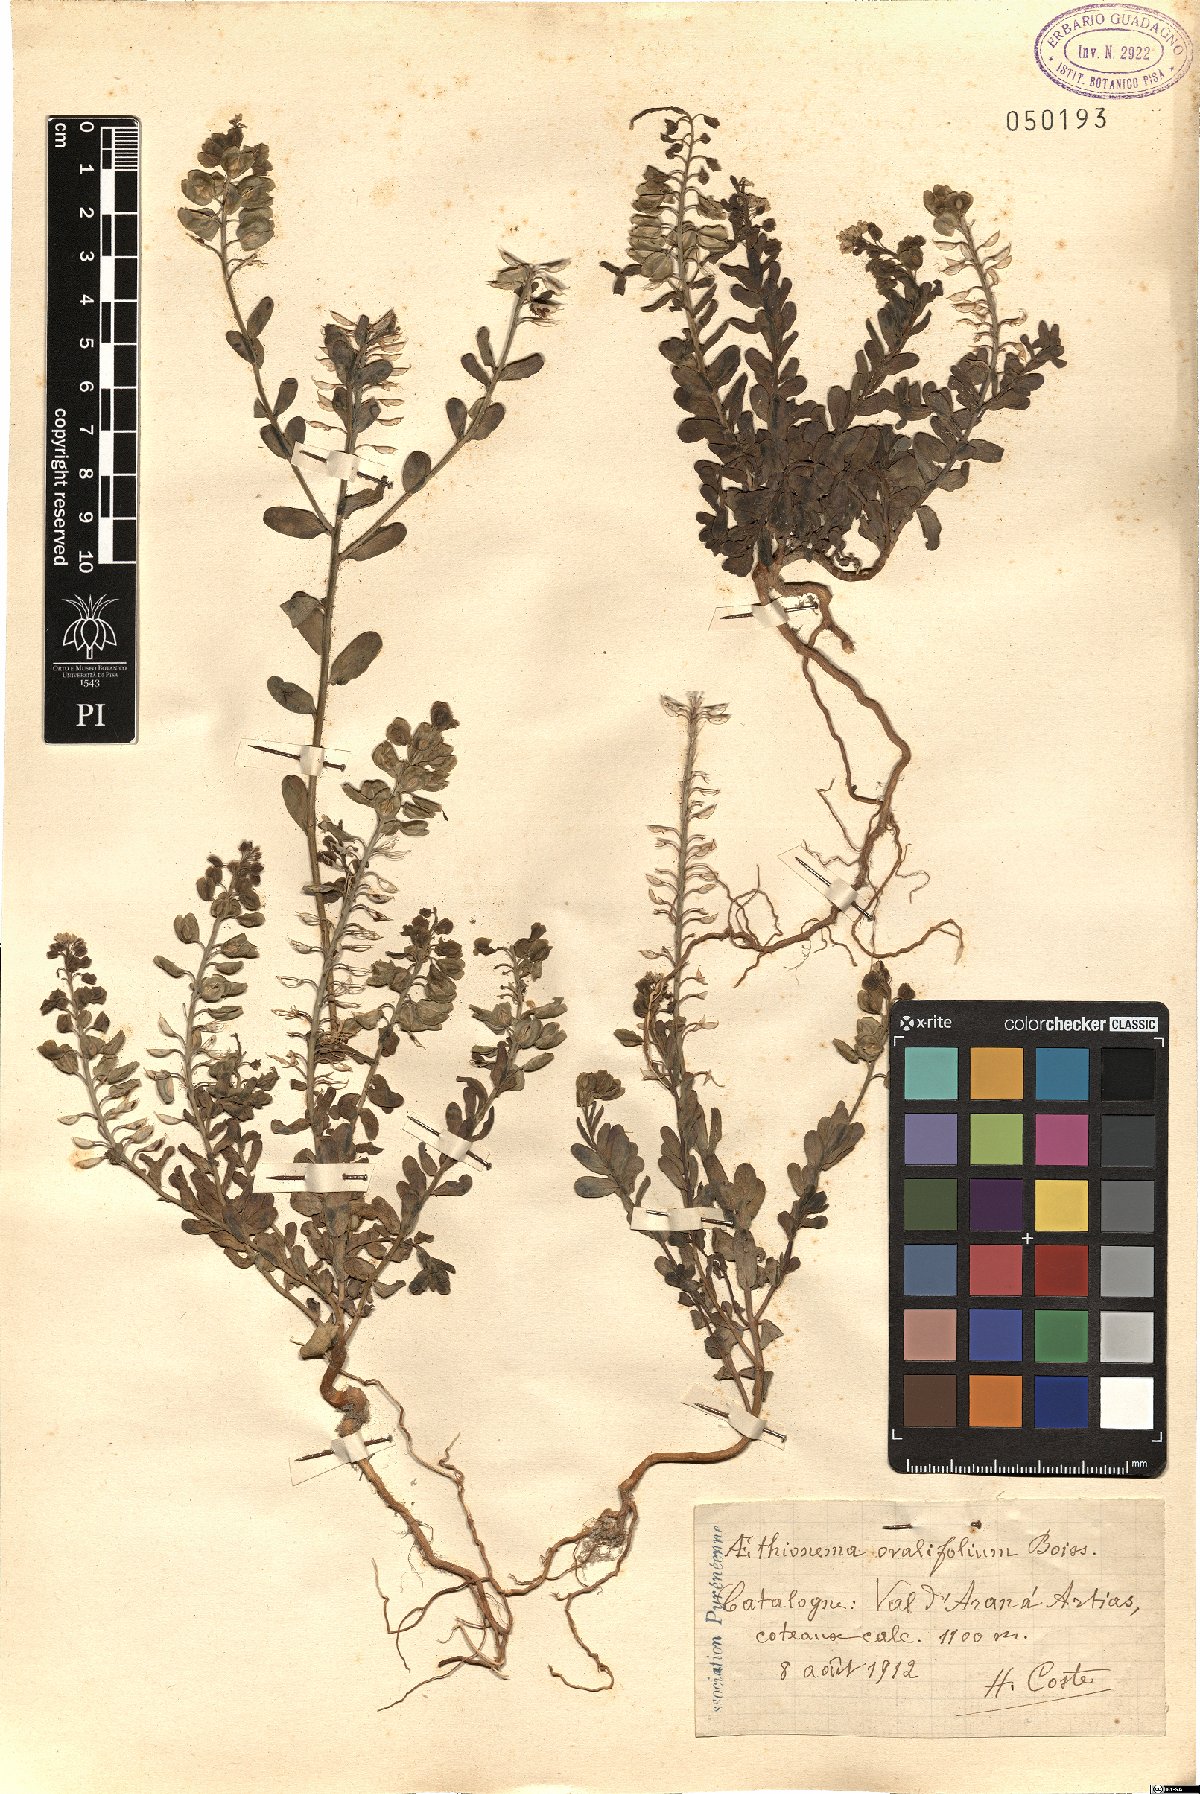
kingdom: Plantae
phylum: Tracheophyta
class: Magnoliopsida
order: Brassicales
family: Brassicaceae
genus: Aethionema
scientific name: Aethionema saxatile
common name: Burnt candytuft
